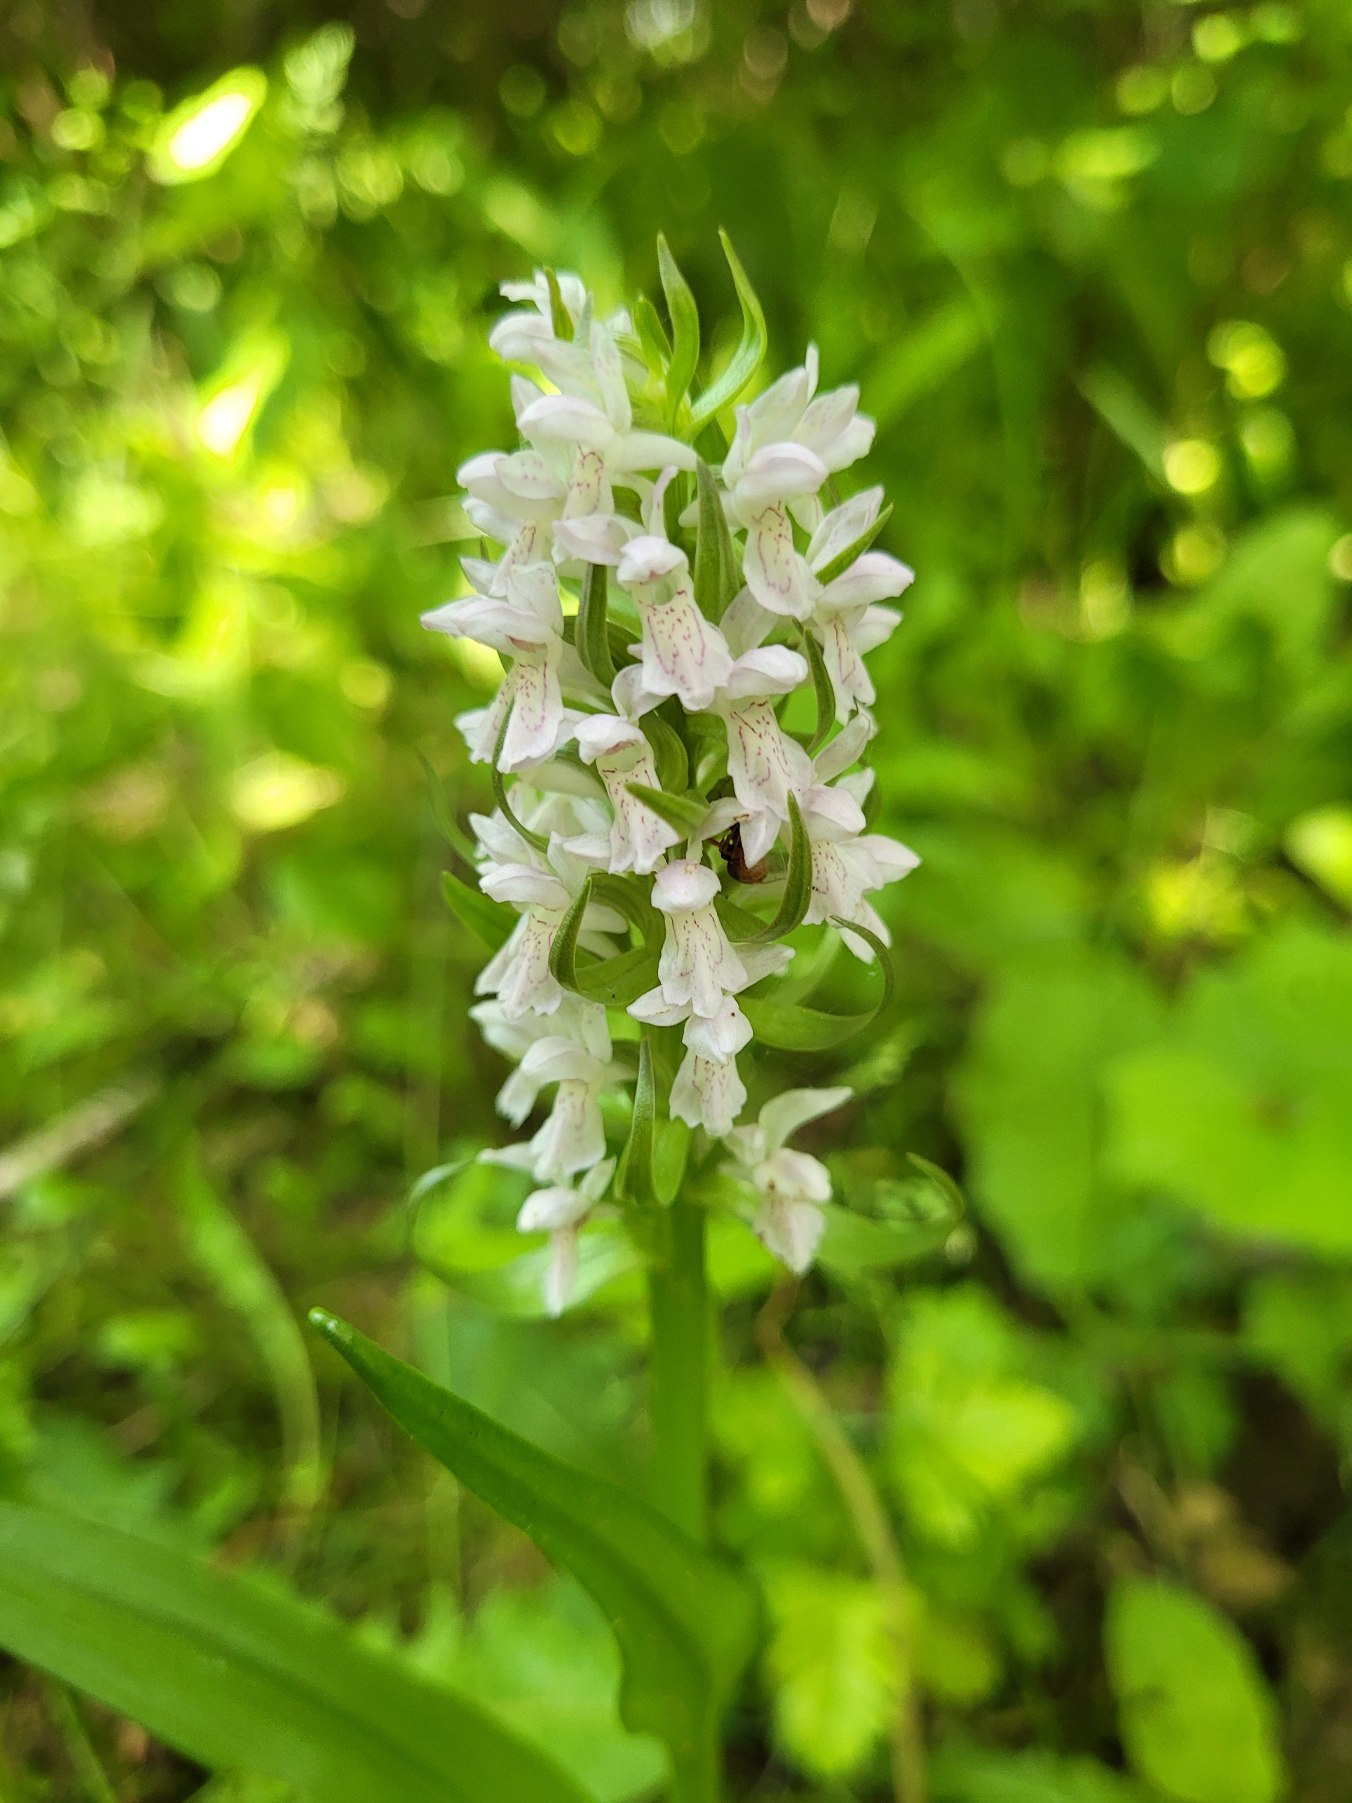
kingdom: Plantae
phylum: Tracheophyta
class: Liliopsida
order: Asparagales
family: Orchidaceae
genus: Dactylorhiza
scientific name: Dactylorhiza incarnata
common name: Kødfarvet gøgeurt
